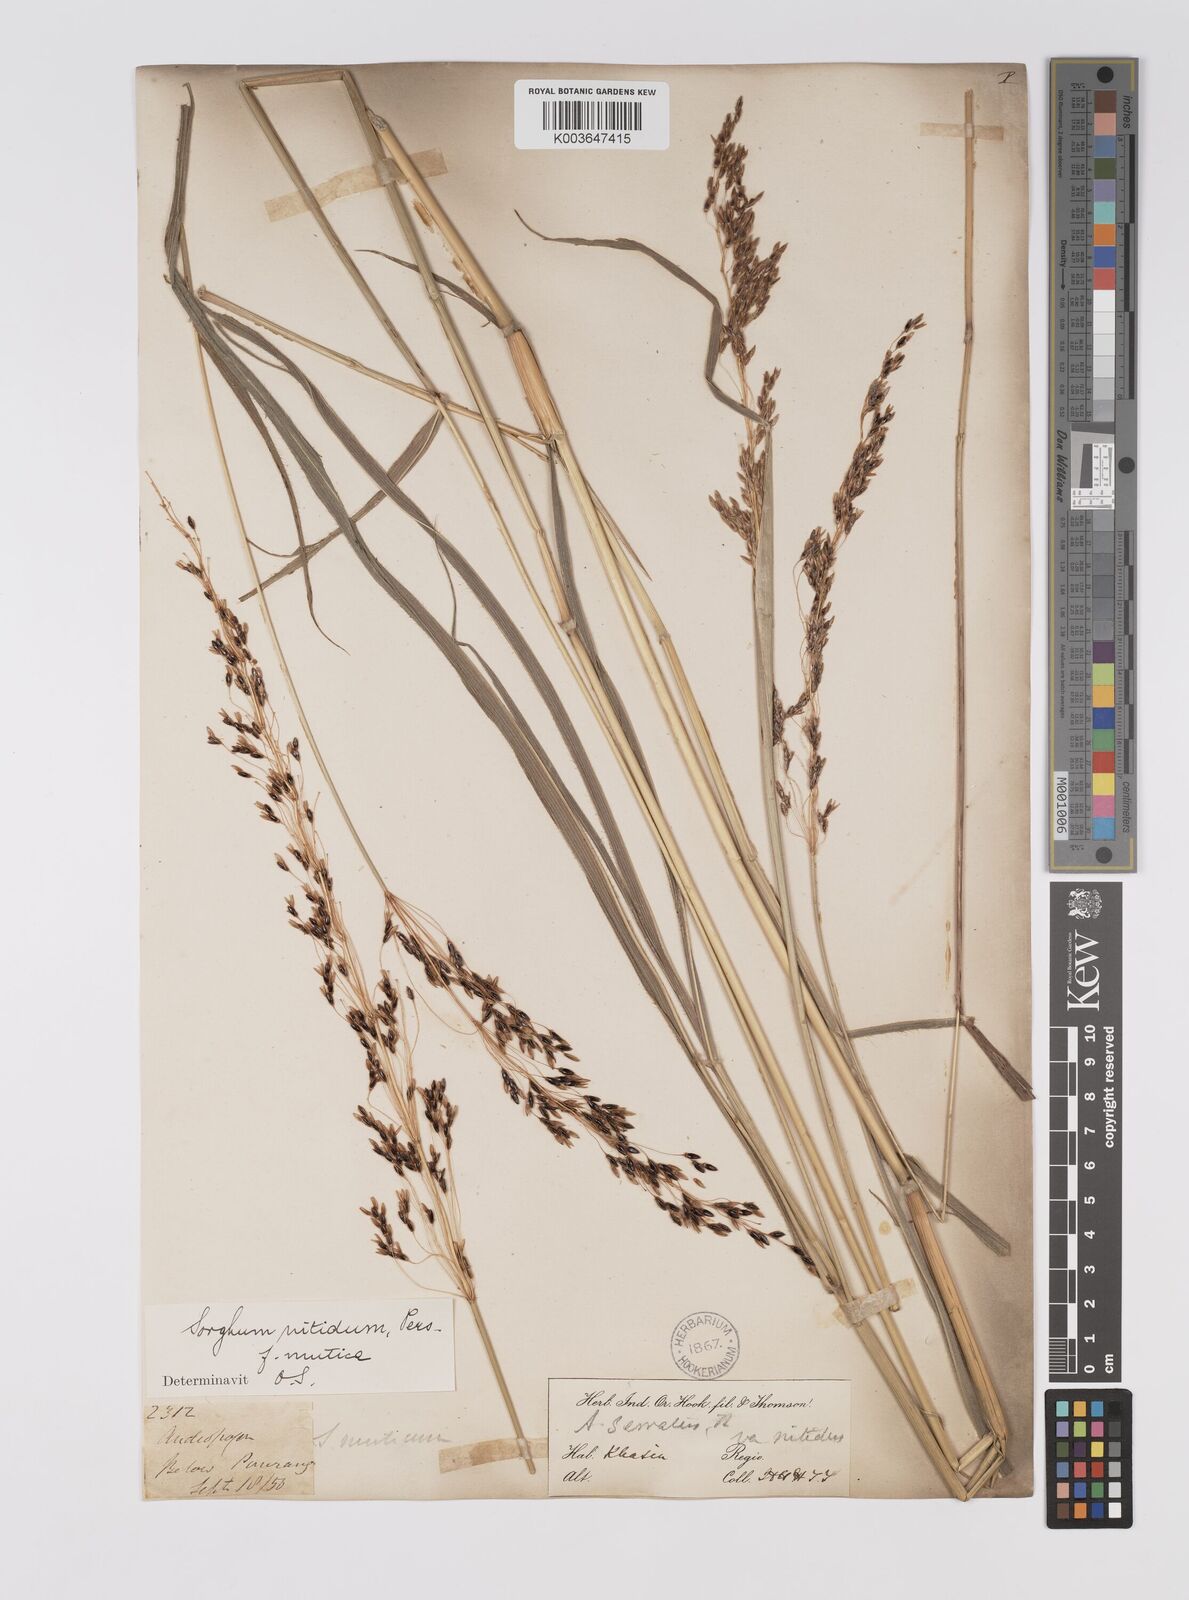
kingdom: Plantae
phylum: Tracheophyta
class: Liliopsida
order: Poales
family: Poaceae
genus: Sorghum
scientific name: Sorghum nitidum
